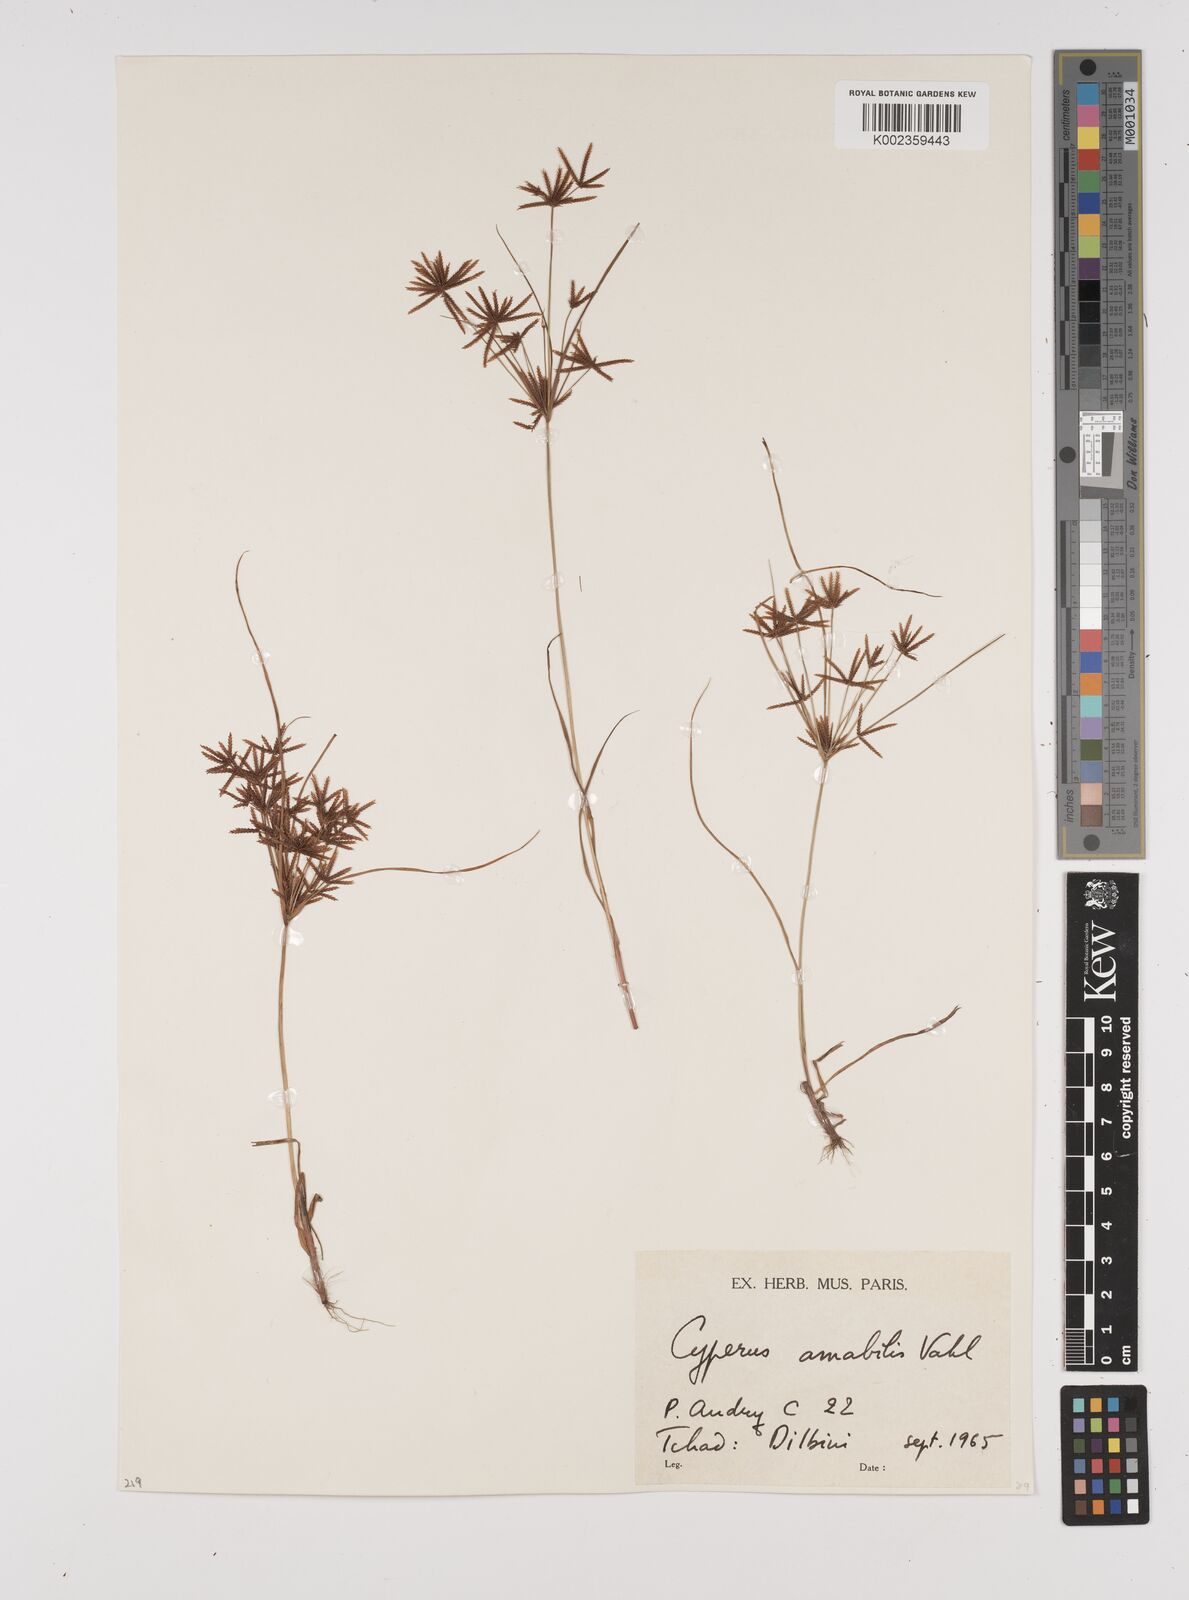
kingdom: Plantae
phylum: Tracheophyta
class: Liliopsida
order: Poales
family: Cyperaceae
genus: Cyperus
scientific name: Cyperus amabilis
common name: Foothill flat sedge
